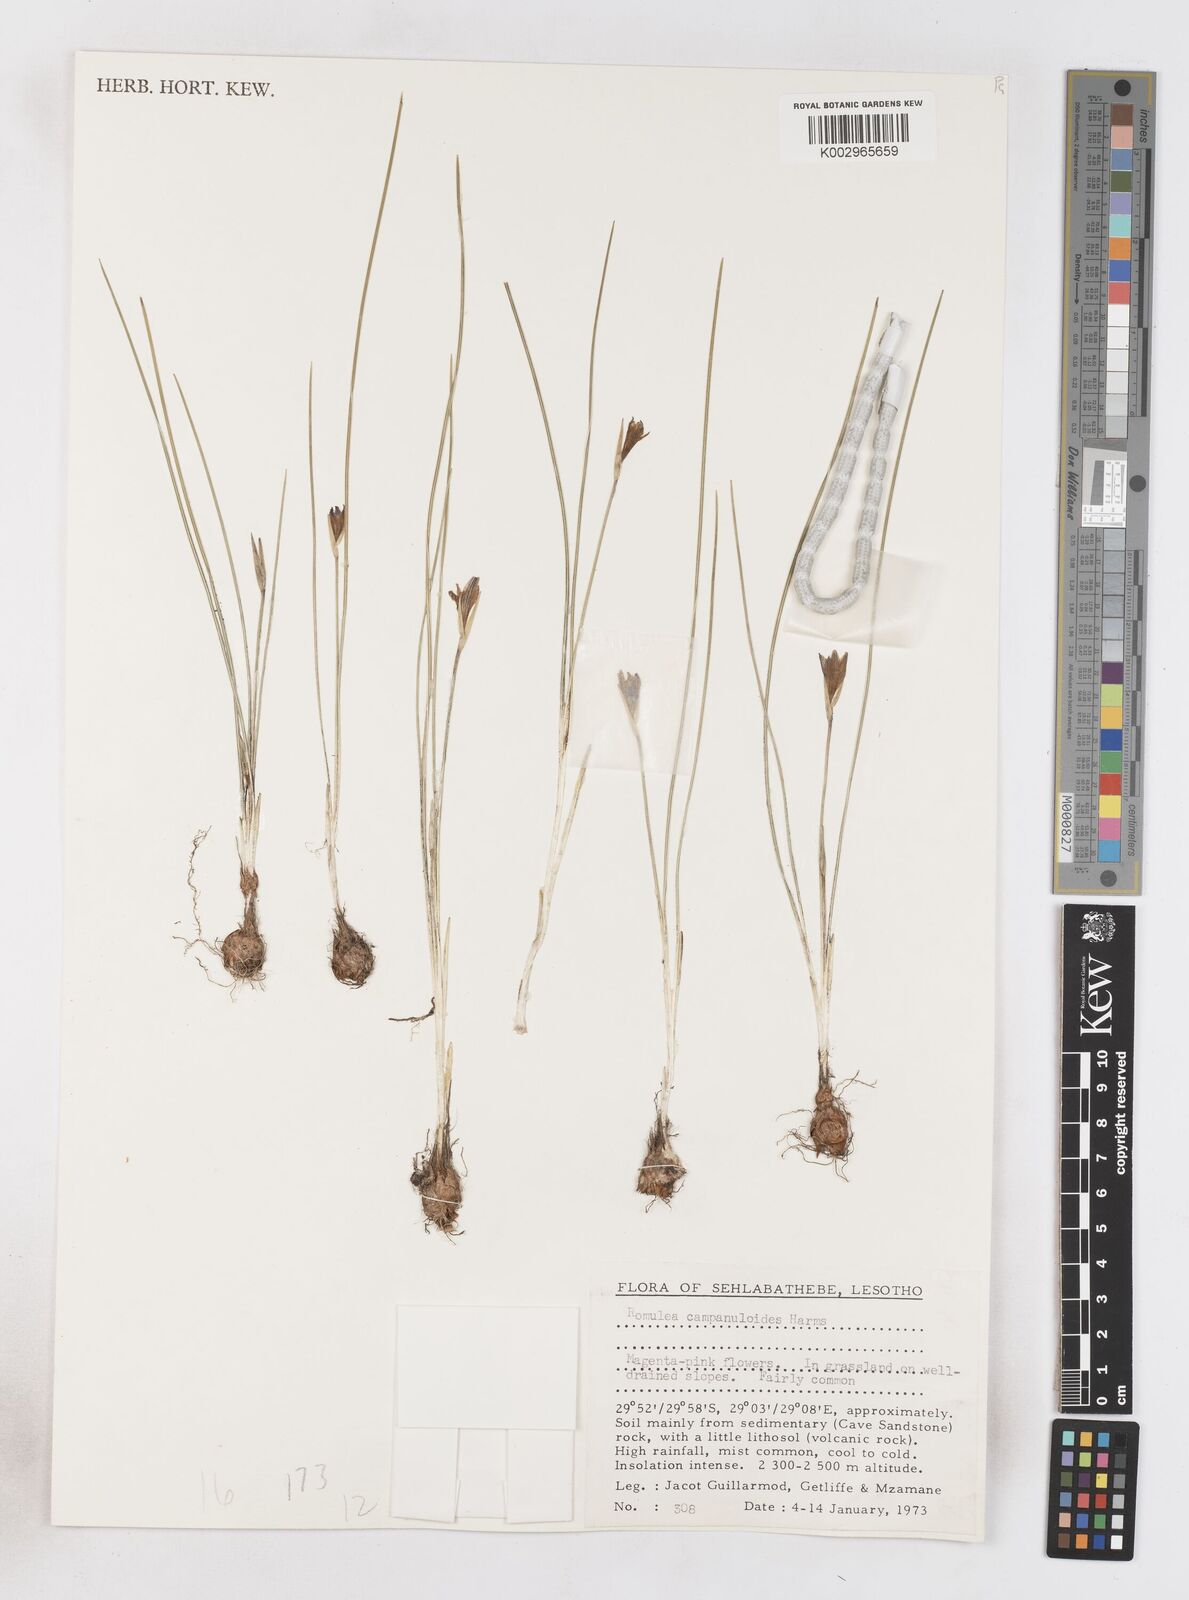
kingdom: Plantae
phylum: Tracheophyta
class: Liliopsida
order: Asparagales
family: Iridaceae
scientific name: Iridaceae
